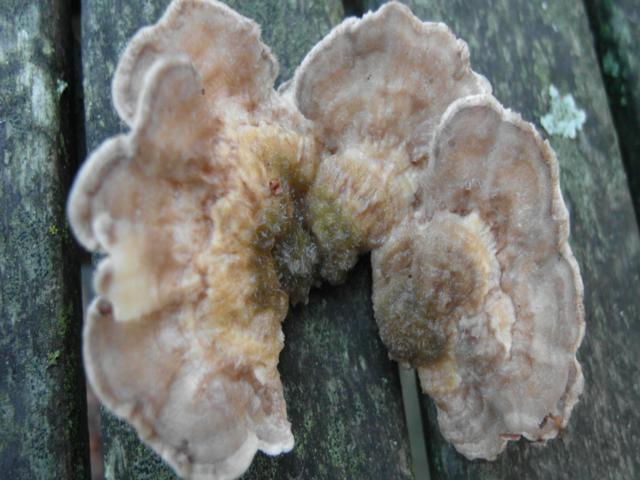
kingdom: Fungi
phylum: Basidiomycota
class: Agaricomycetes
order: Polyporales
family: Polyporaceae
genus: Lenzites
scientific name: Lenzites betulinus
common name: birke-læderporesvamp
